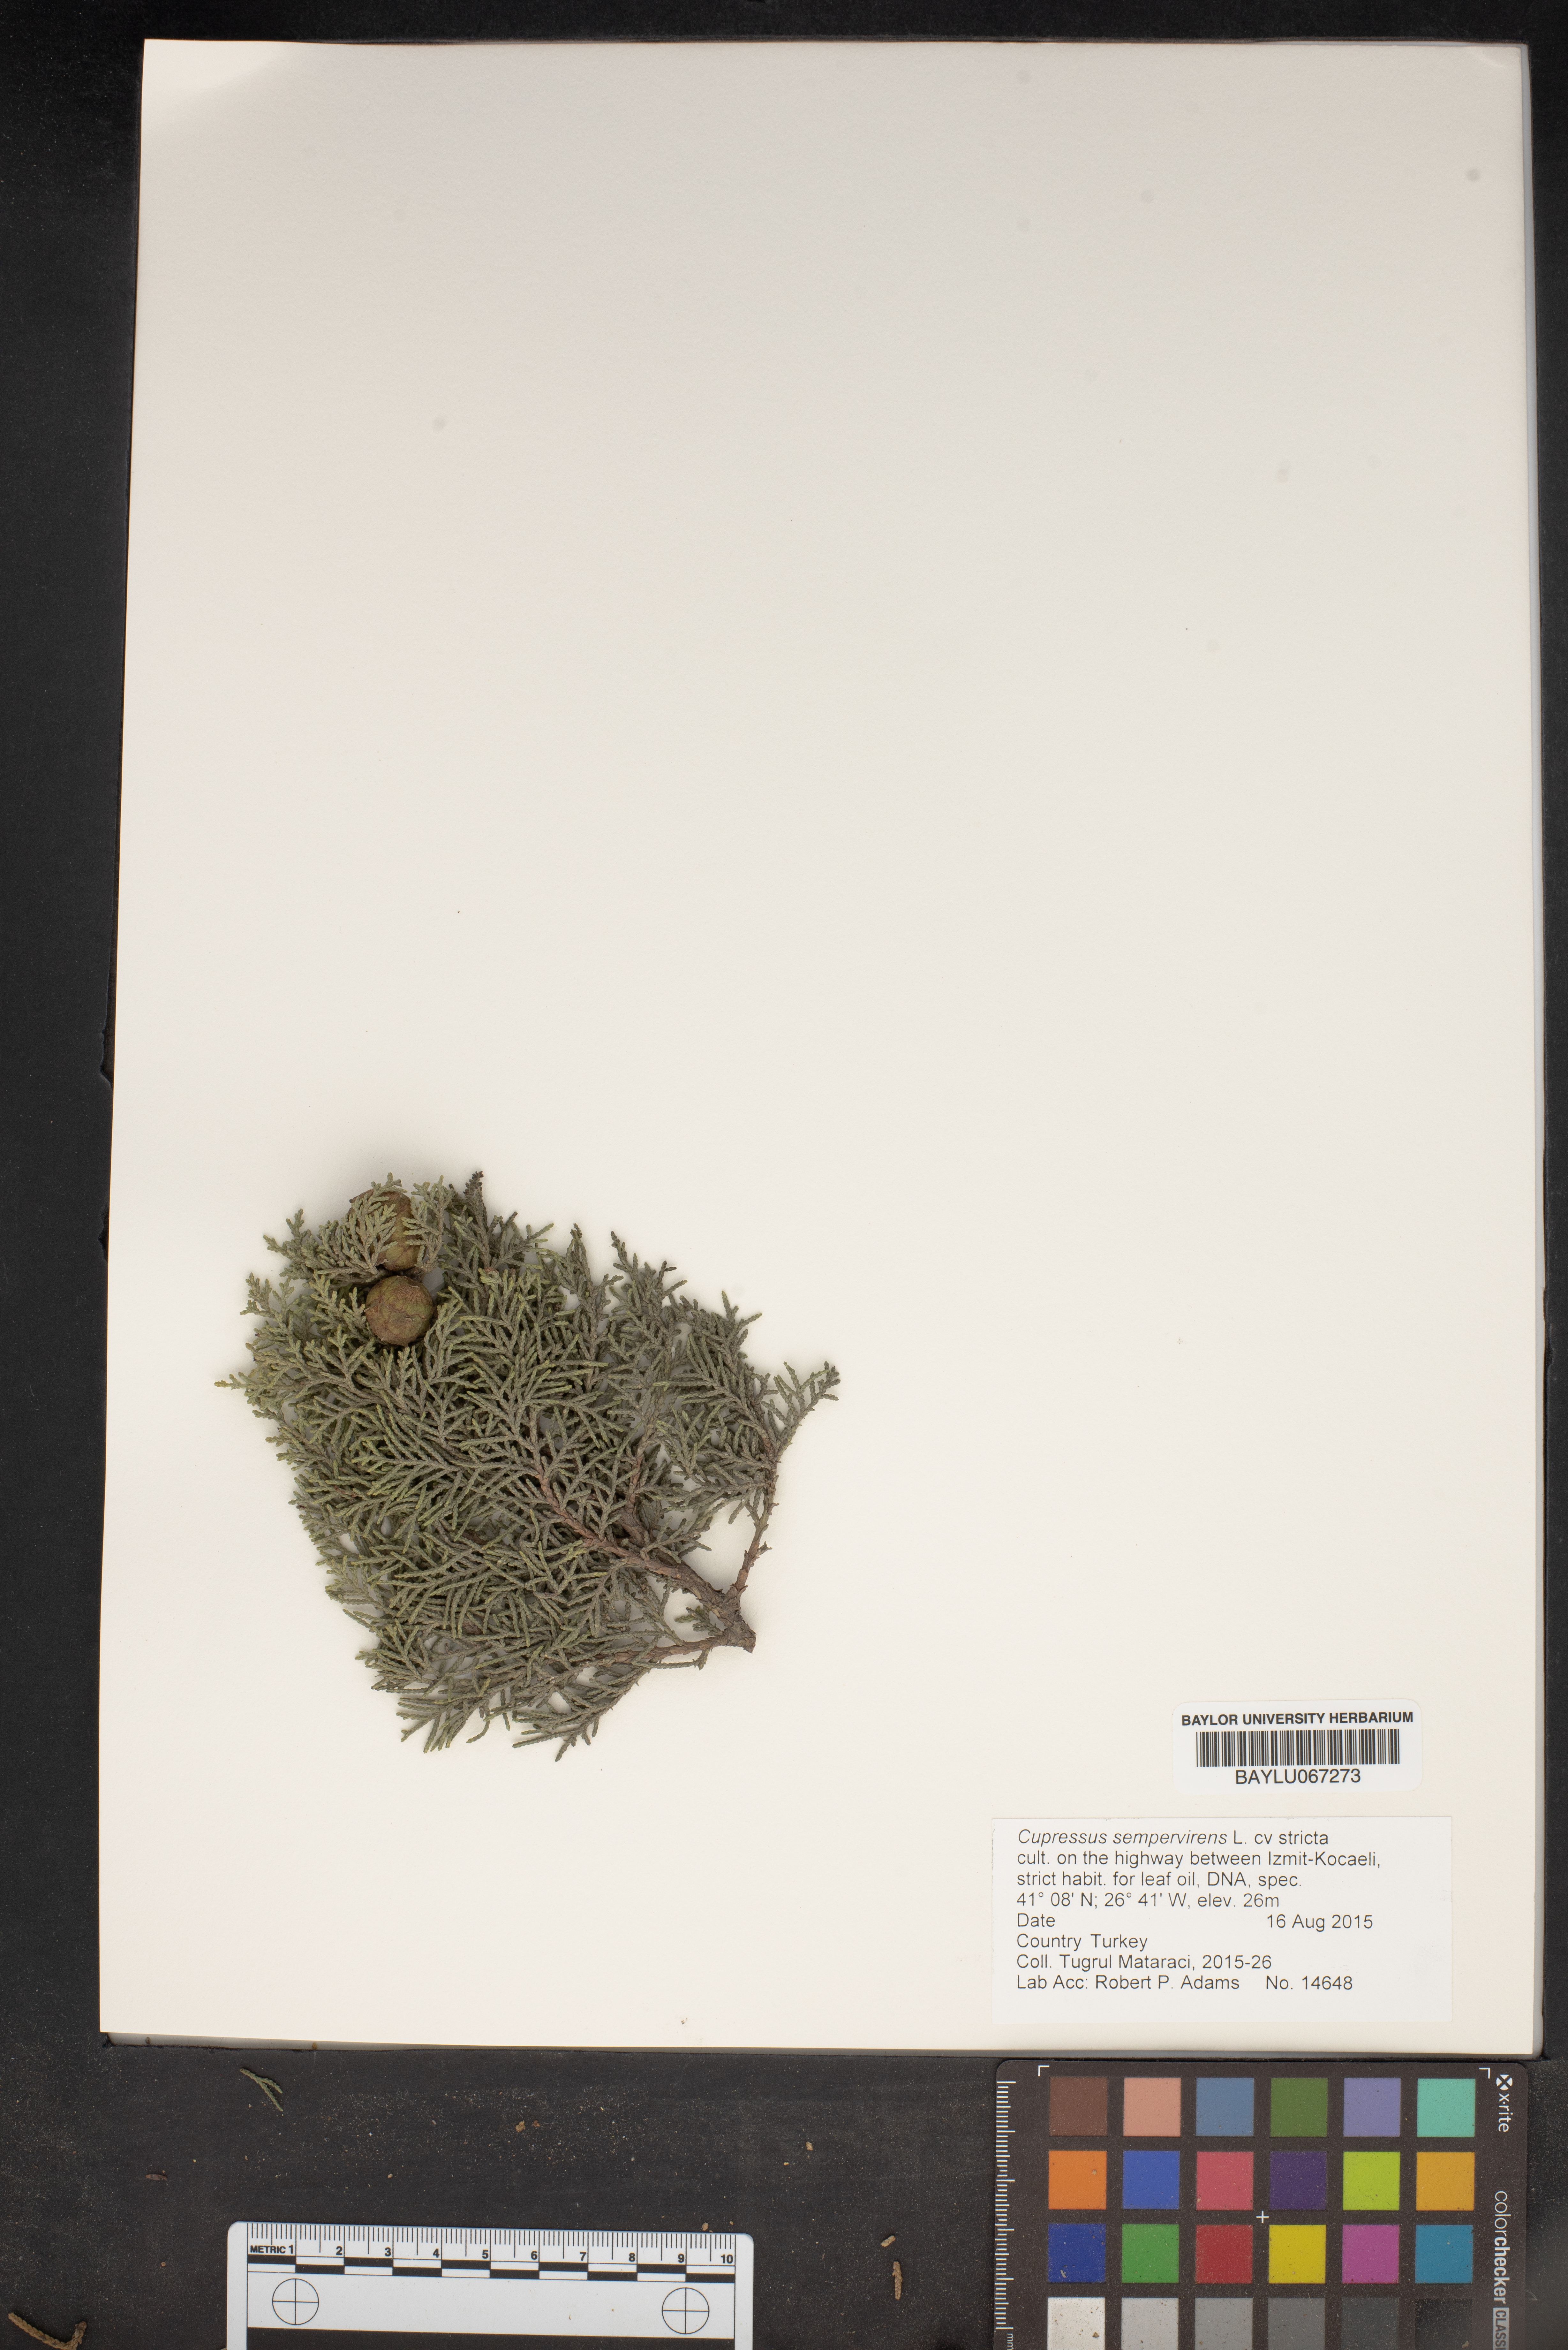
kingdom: Plantae
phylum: Tracheophyta
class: Pinopsida
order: Pinales
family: Cupressaceae
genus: Cupressus
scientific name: Cupressus sempervirens
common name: Italian cypress
